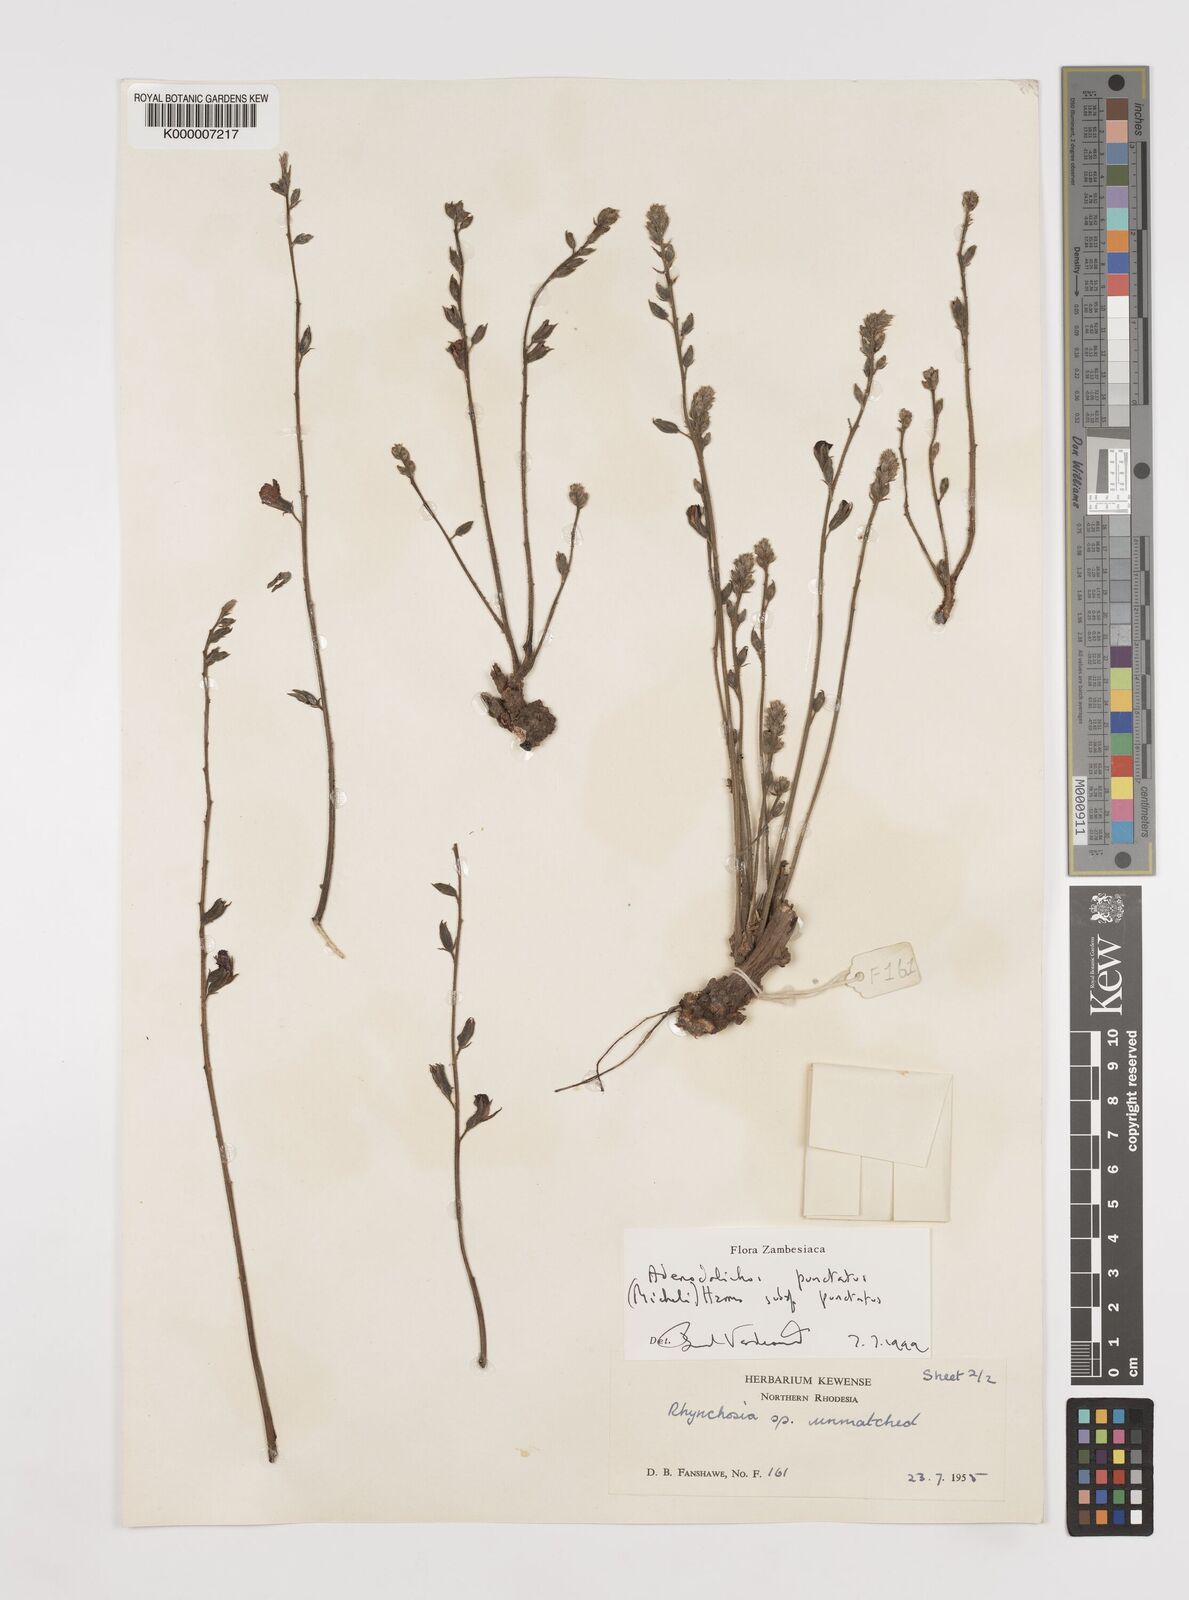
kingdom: Plantae
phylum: Tracheophyta
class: Magnoliopsida
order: Fabales
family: Fabaceae
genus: Adenodolichos
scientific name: Adenodolichos punctatus
